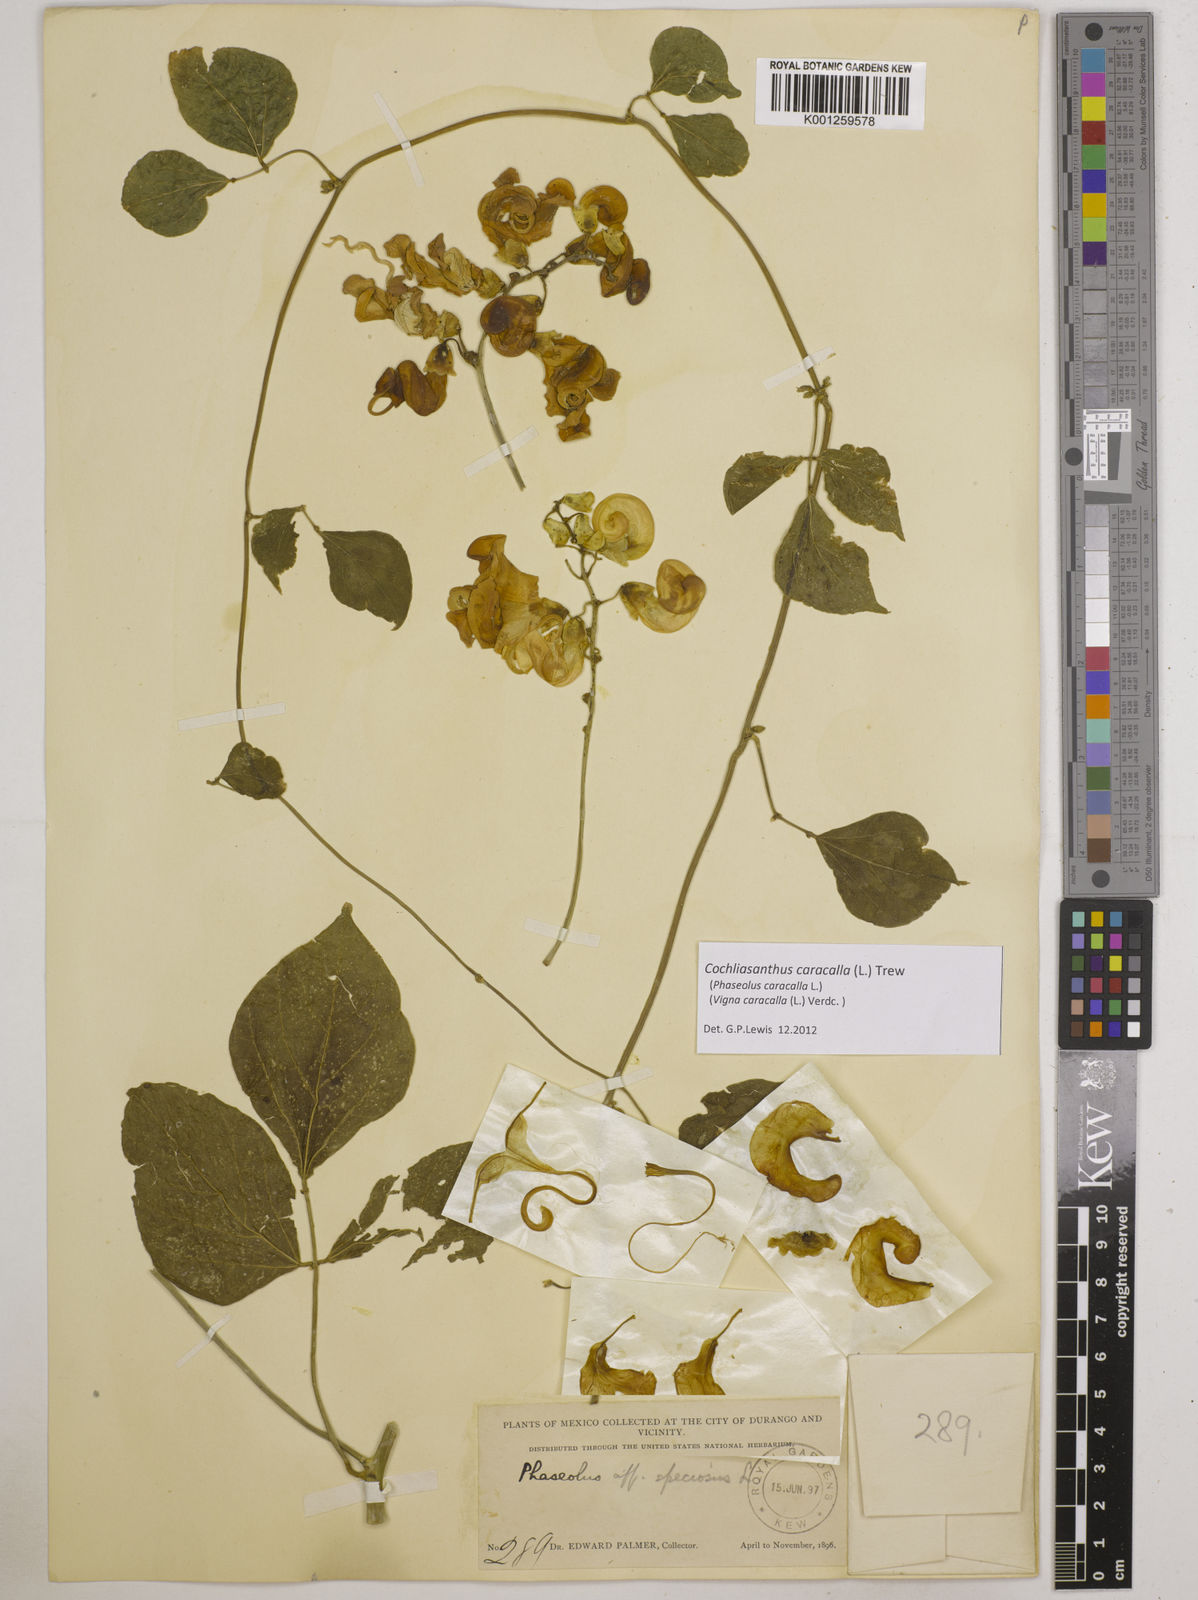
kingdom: Plantae
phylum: Tracheophyta
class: Magnoliopsida
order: Fabales
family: Fabaceae
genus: Cochliasanthus
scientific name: Cochliasanthus caracalla
